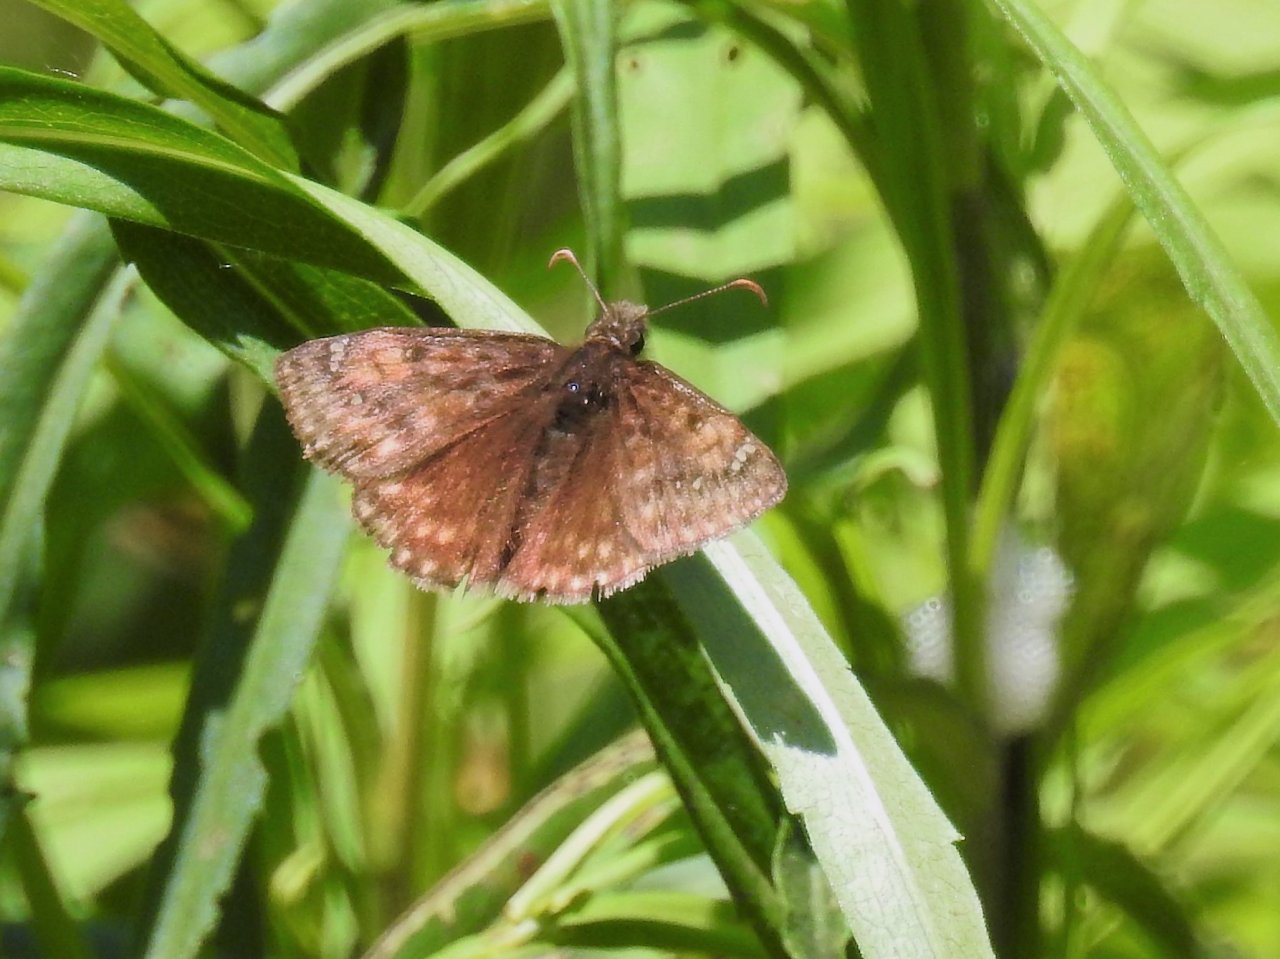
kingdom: Animalia
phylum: Arthropoda
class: Insecta
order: Lepidoptera
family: Hesperiidae
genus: Gesta
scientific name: Gesta
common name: Juvenal's Duskywing
